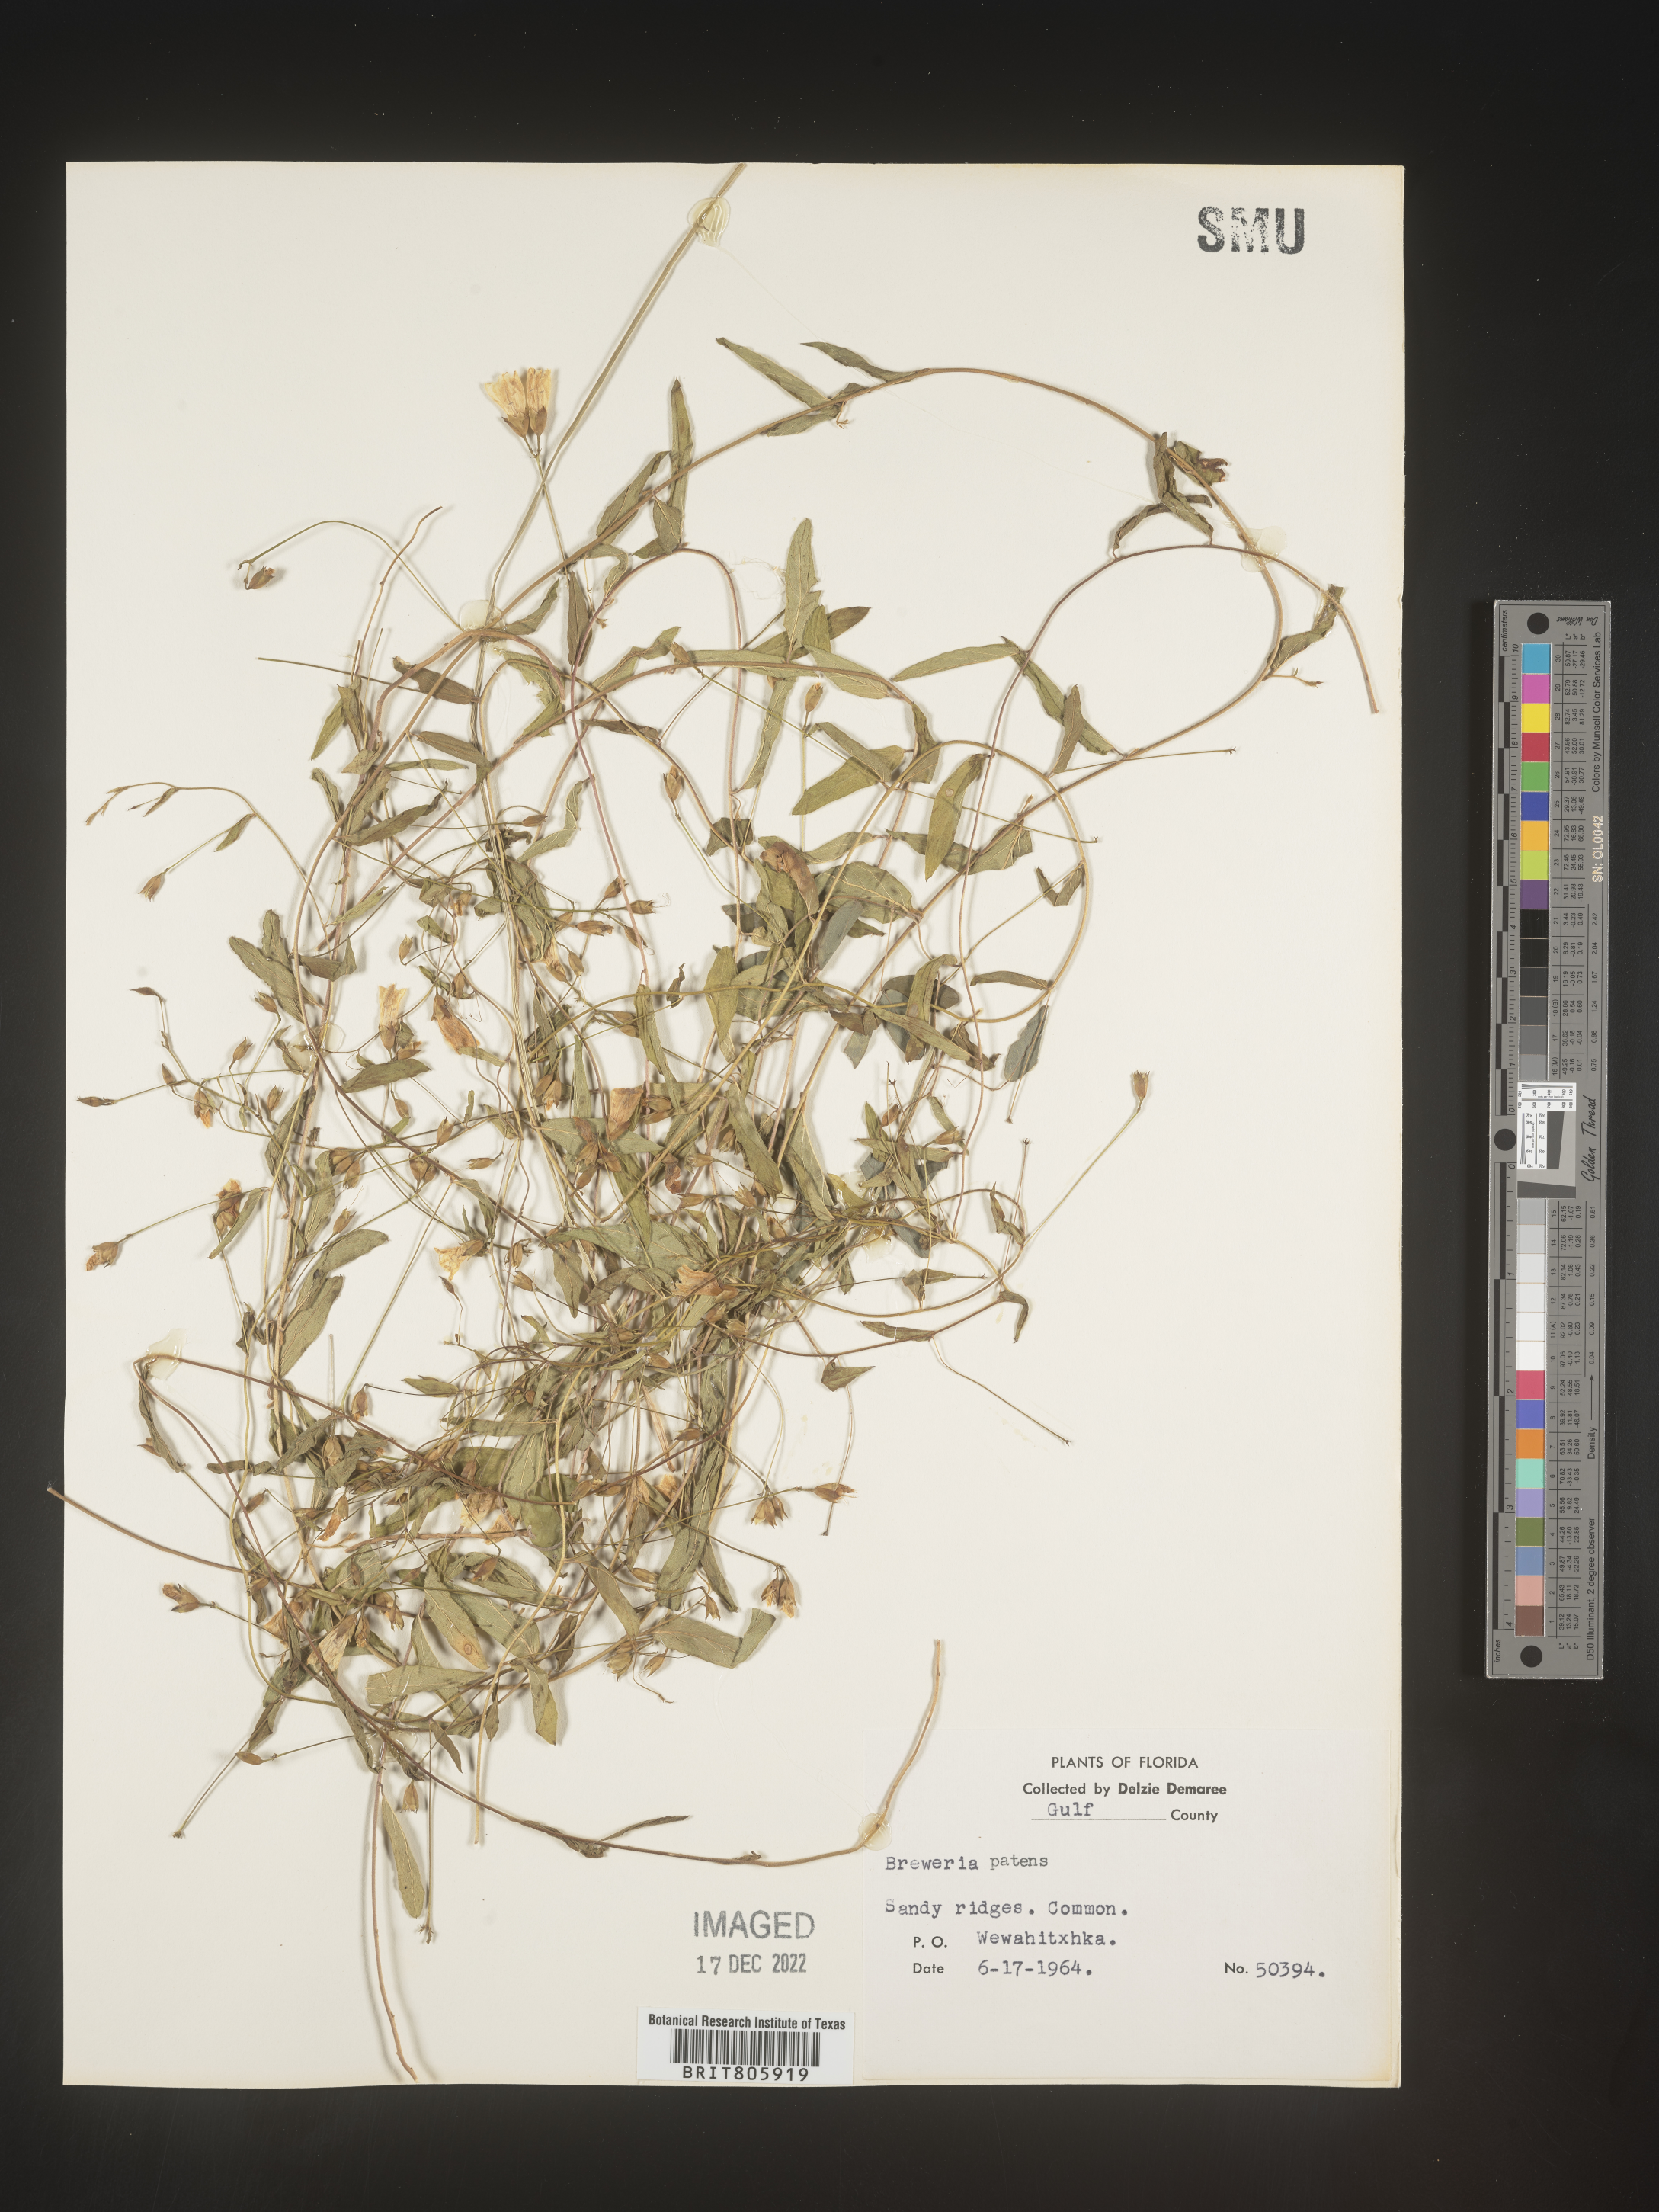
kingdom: Plantae
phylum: Tracheophyta
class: Magnoliopsida
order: Solanales
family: Convolvulaceae
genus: Stylisma
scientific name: Stylisma
